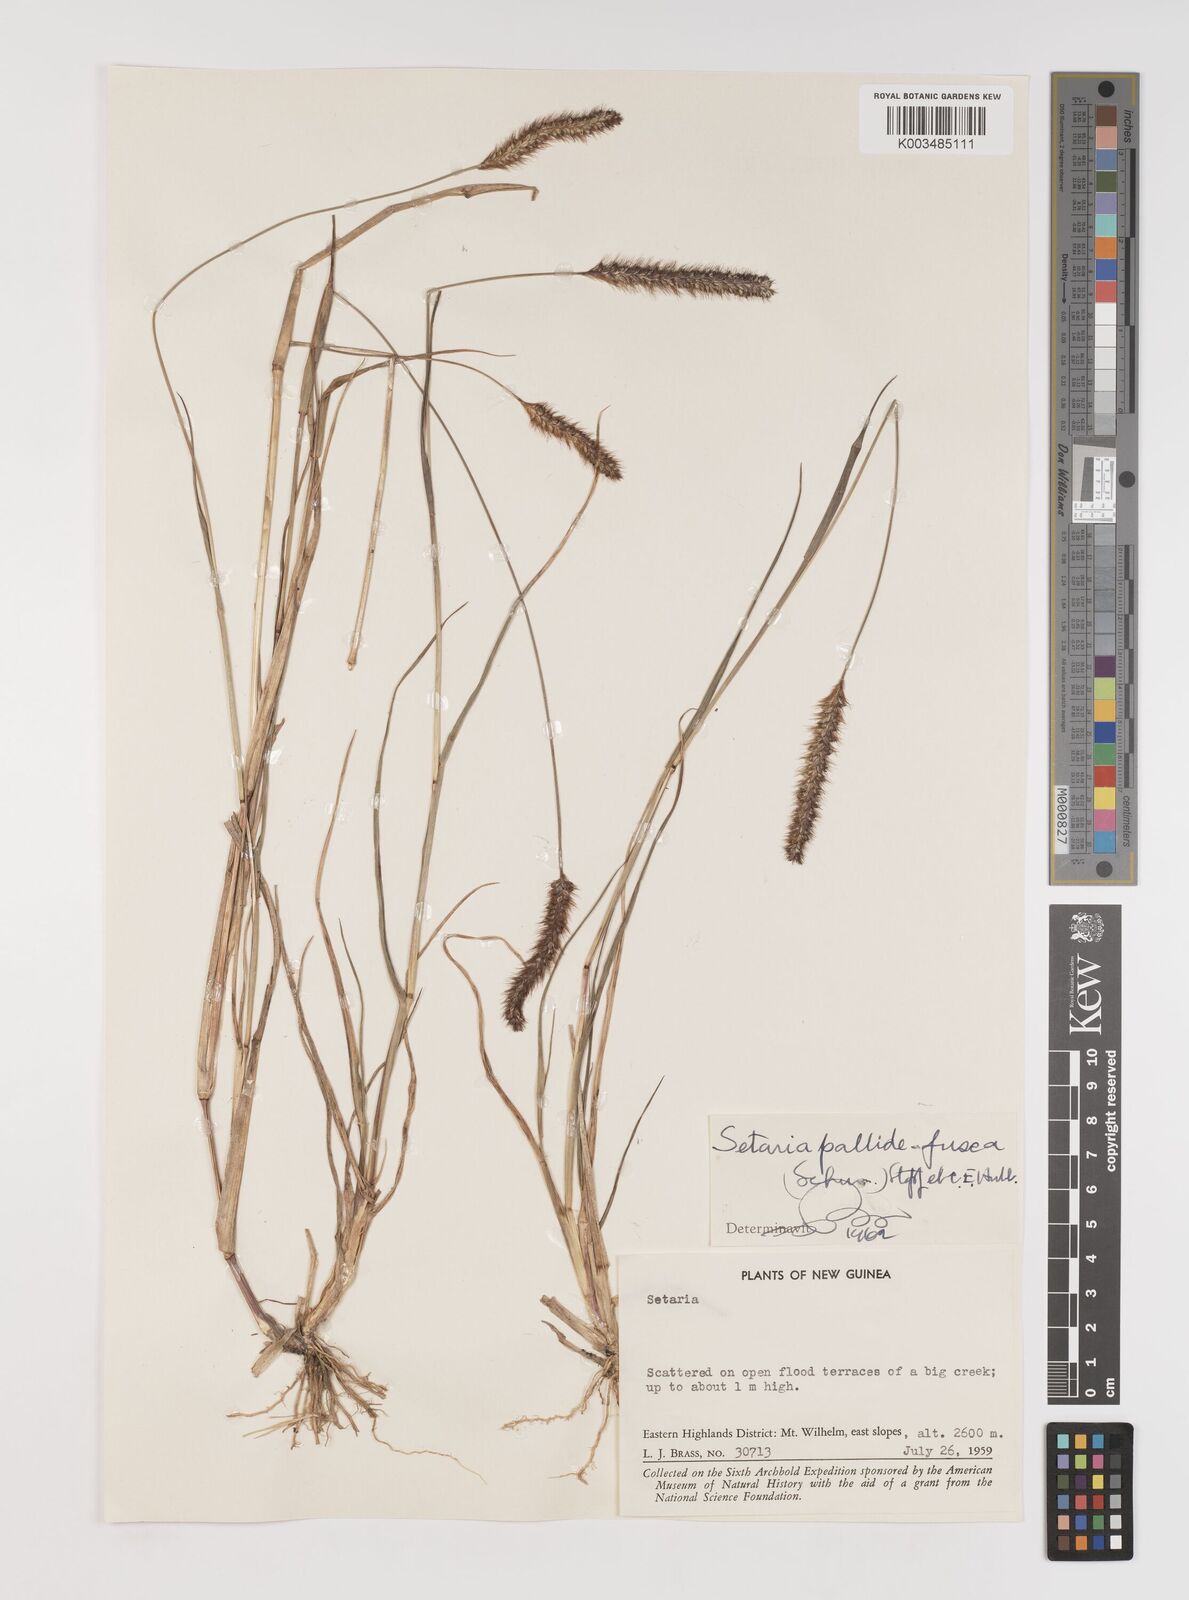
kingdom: Plantae
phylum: Tracheophyta
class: Liliopsida
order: Poales
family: Poaceae
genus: Setaria
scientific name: Setaria parviflora
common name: Knotroot bristle-grass
